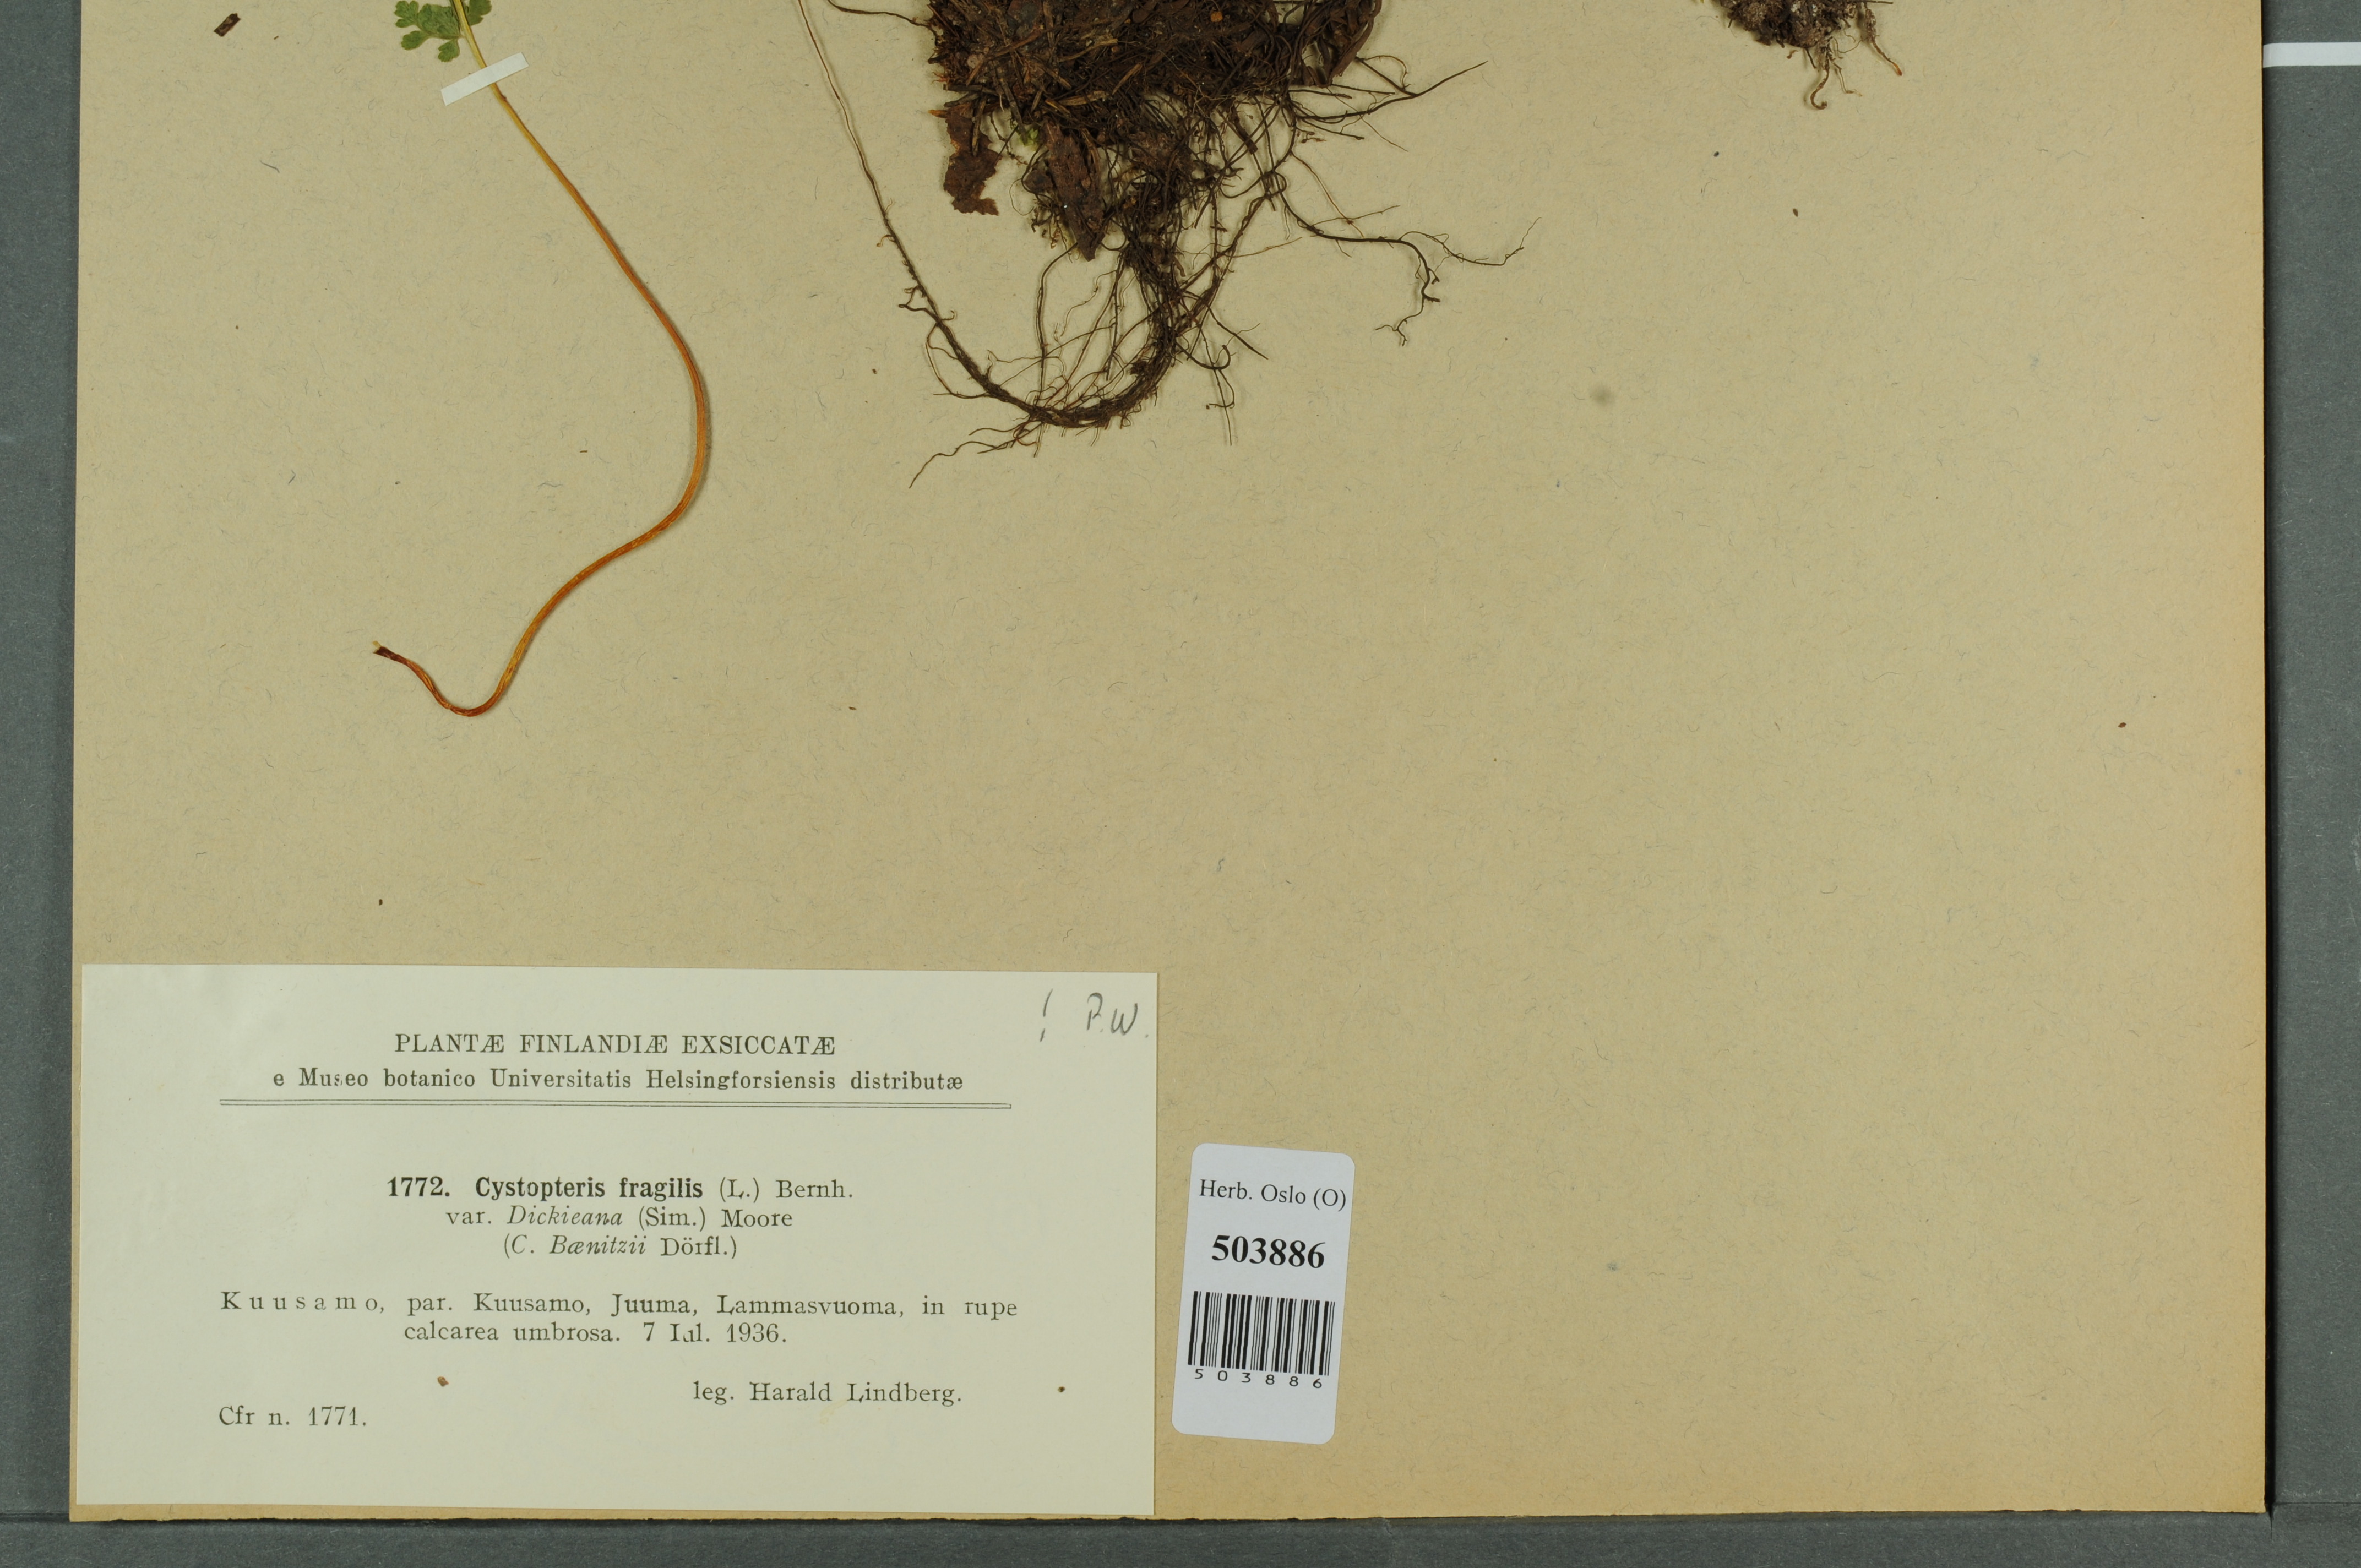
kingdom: Plantae
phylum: Tracheophyta
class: Polypodiopsida
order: Polypodiales
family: Cystopteridaceae
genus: Cystopteris
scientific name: Cystopteris dickieana
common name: Dickie's bladder-fern
